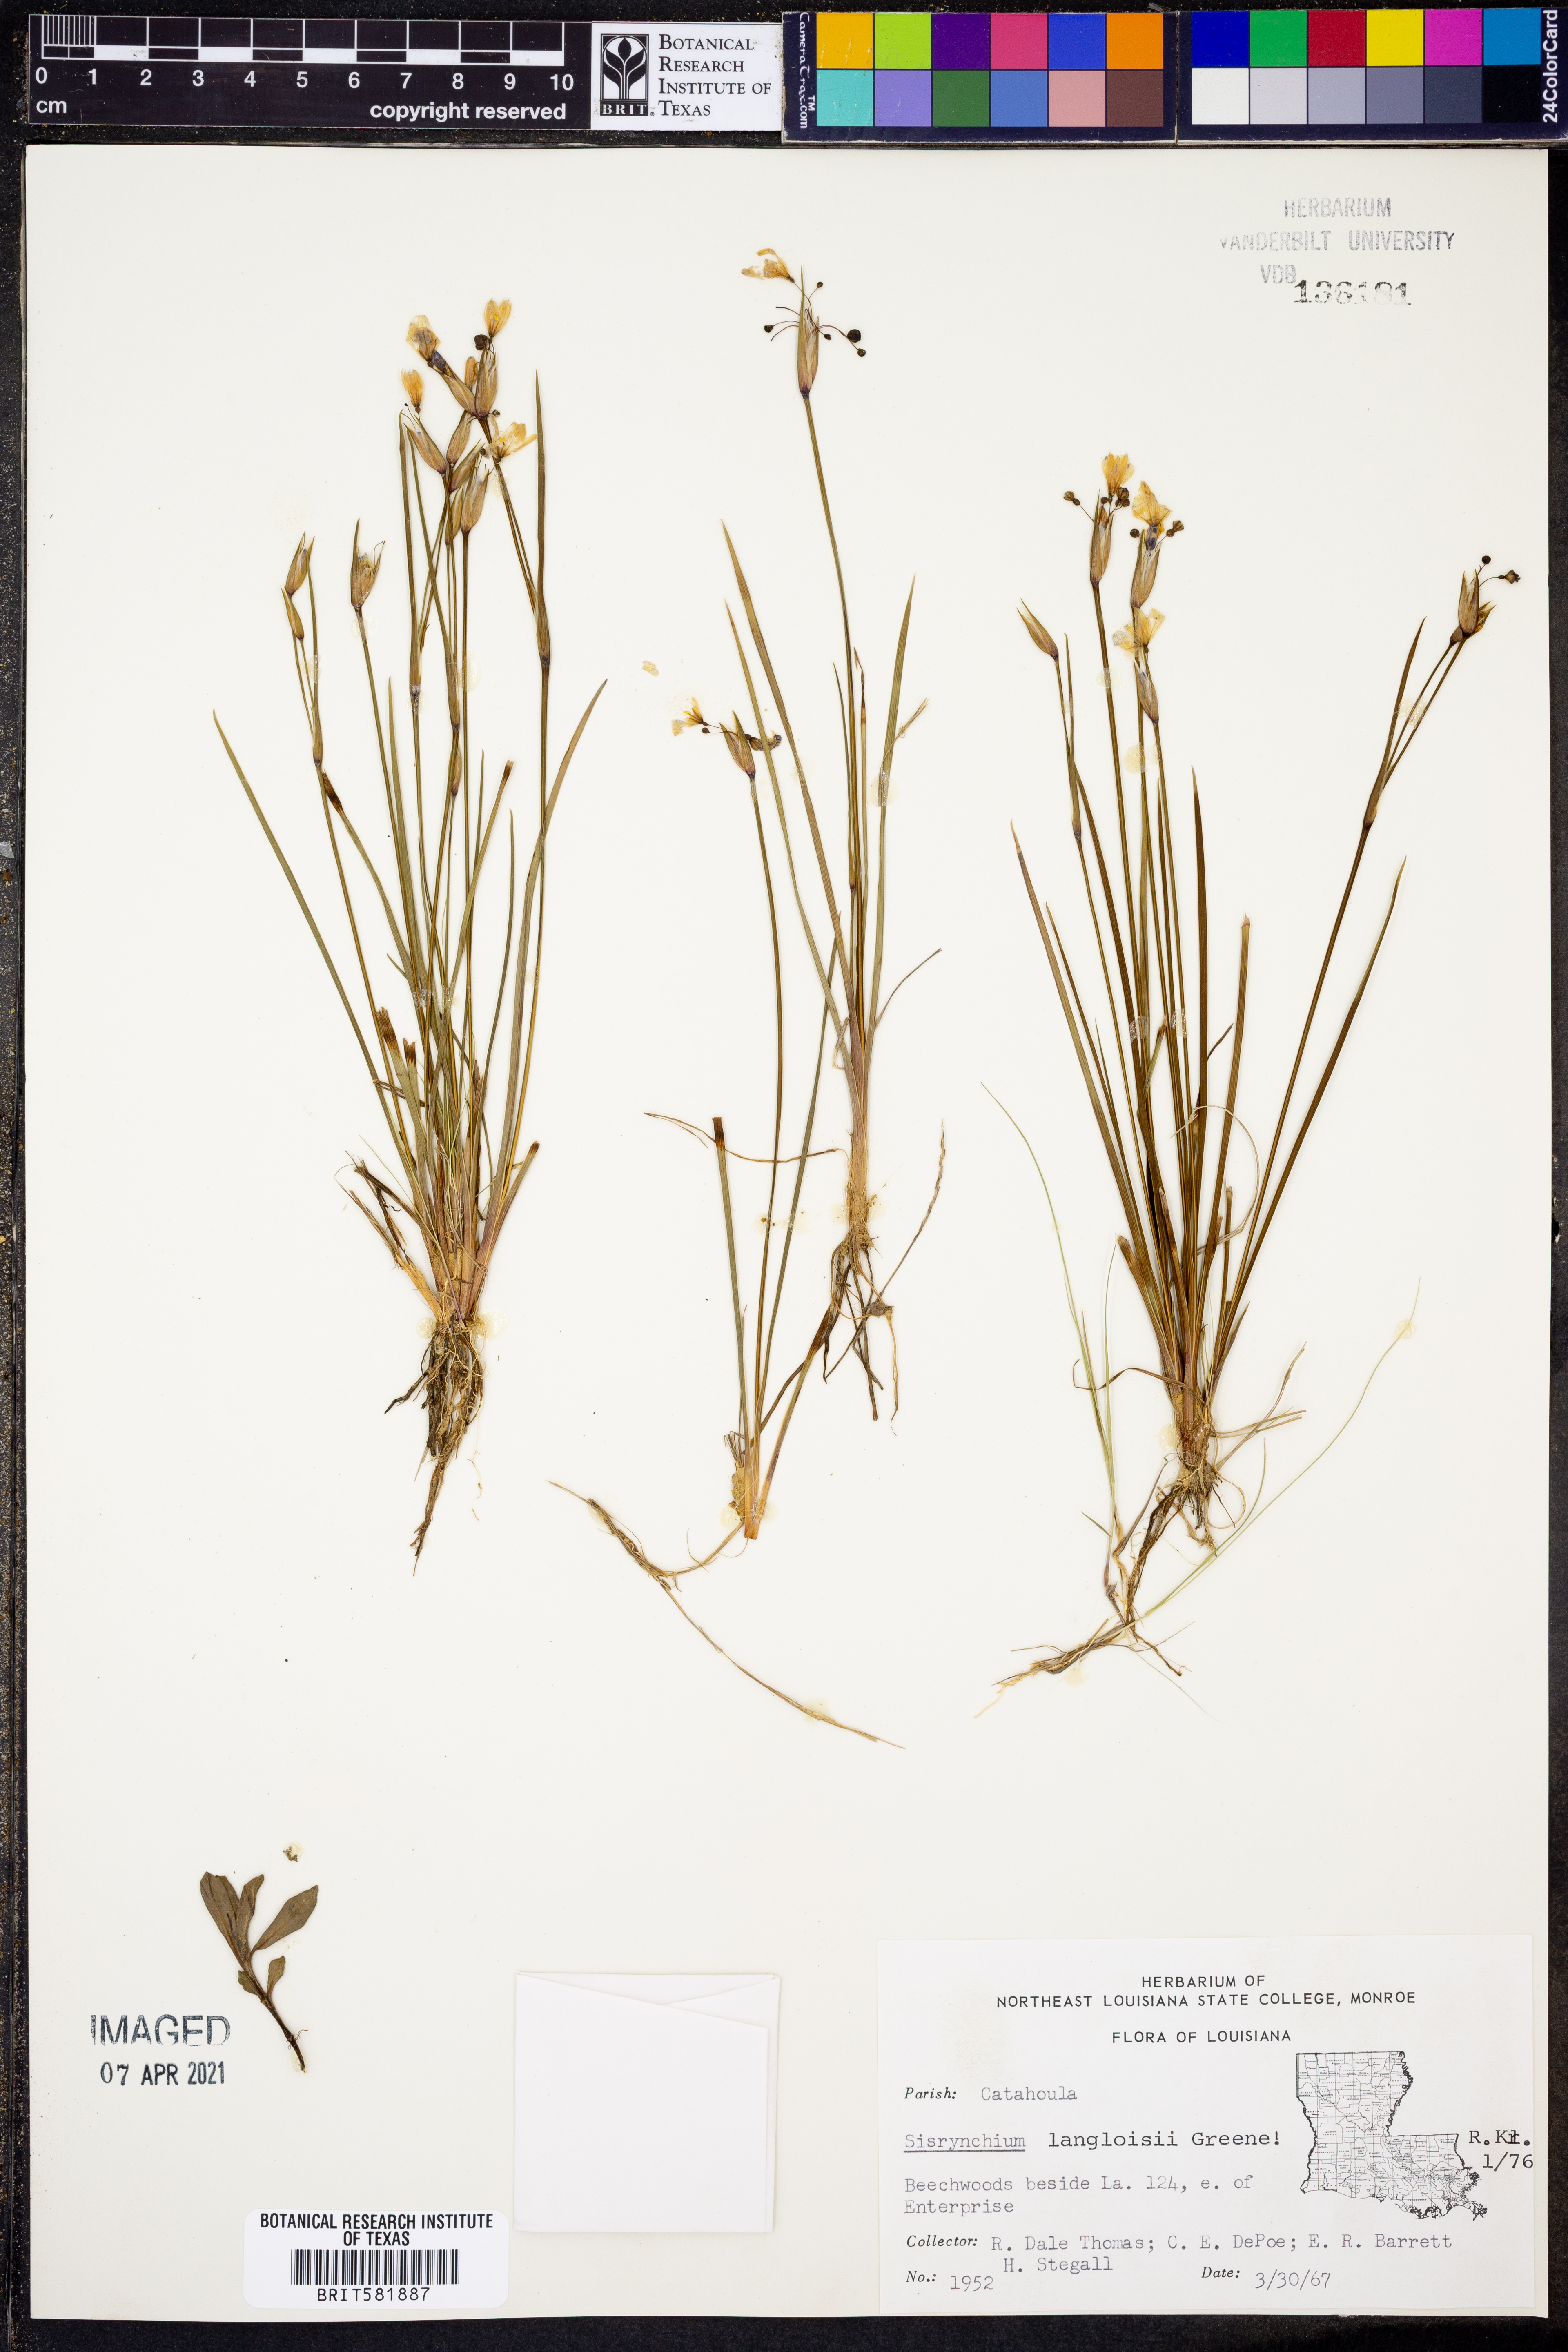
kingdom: Plantae
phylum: Tracheophyta
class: Liliopsida
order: Asparagales
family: Iridaceae
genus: Sisyrinchium
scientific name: Sisyrinchium langloisii
